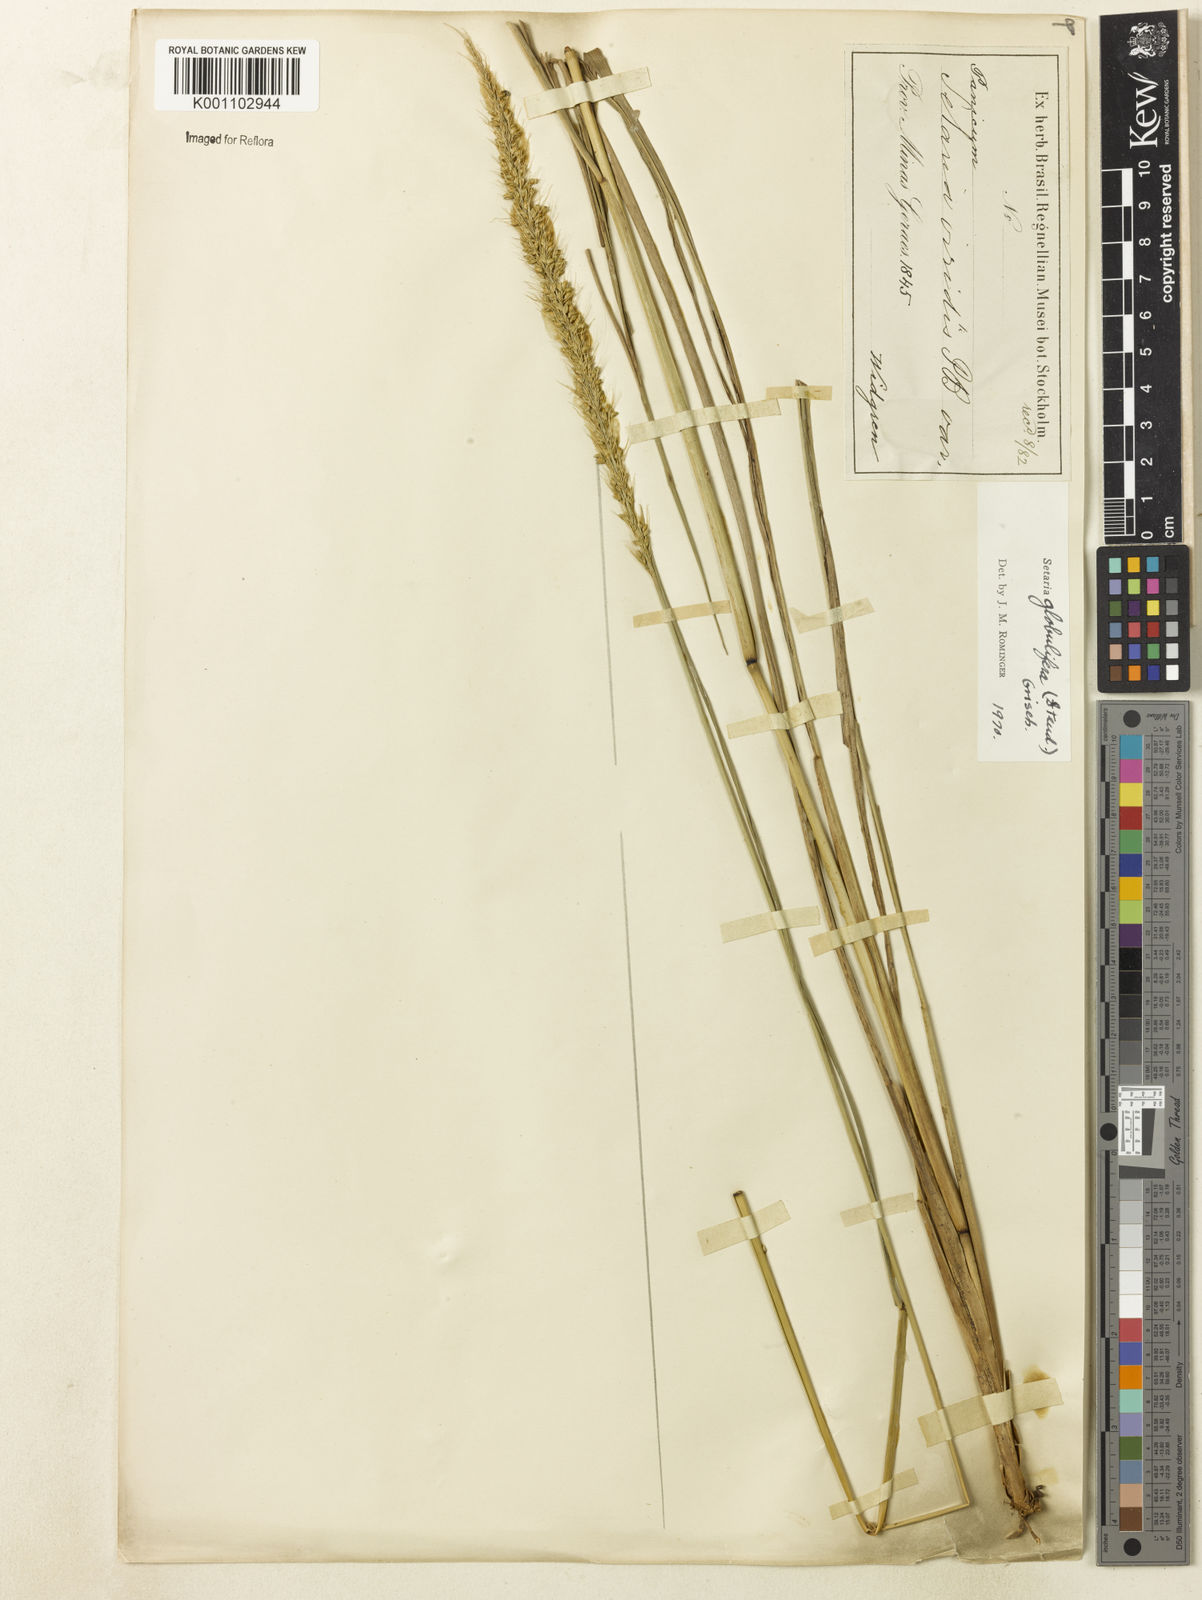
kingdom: Plantae
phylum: Tracheophyta
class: Liliopsida
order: Poales
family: Poaceae
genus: Setaria
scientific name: Setaria globulifera
